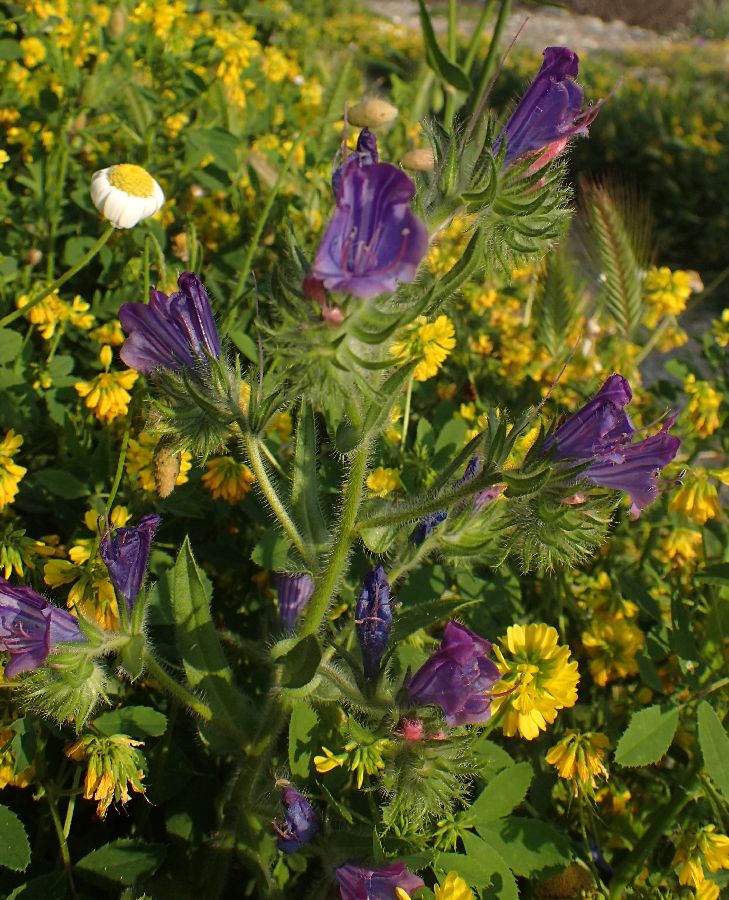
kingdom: Plantae
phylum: Tracheophyta
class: Magnoliopsida
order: Boraginales
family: Boraginaceae
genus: Echium
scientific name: Echium plantagineum
